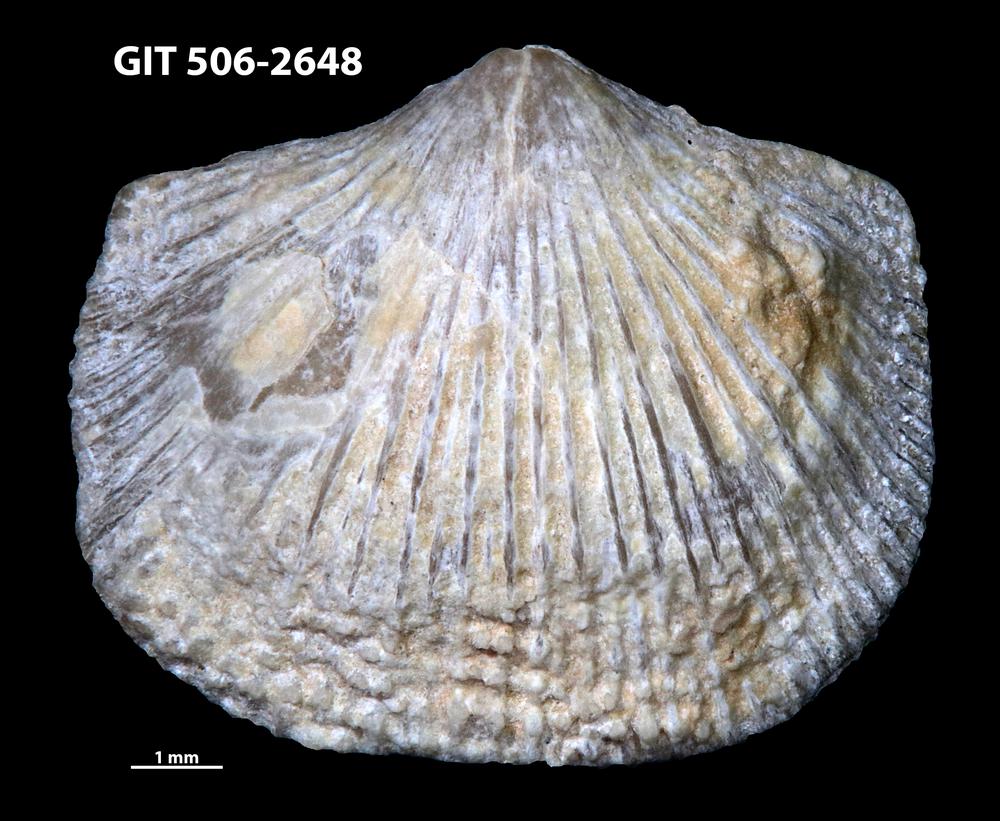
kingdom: Animalia
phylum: Brachiopoda
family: Chilidiopsidae
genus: Morinorhynchus
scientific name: Morinorhynchus crispus
